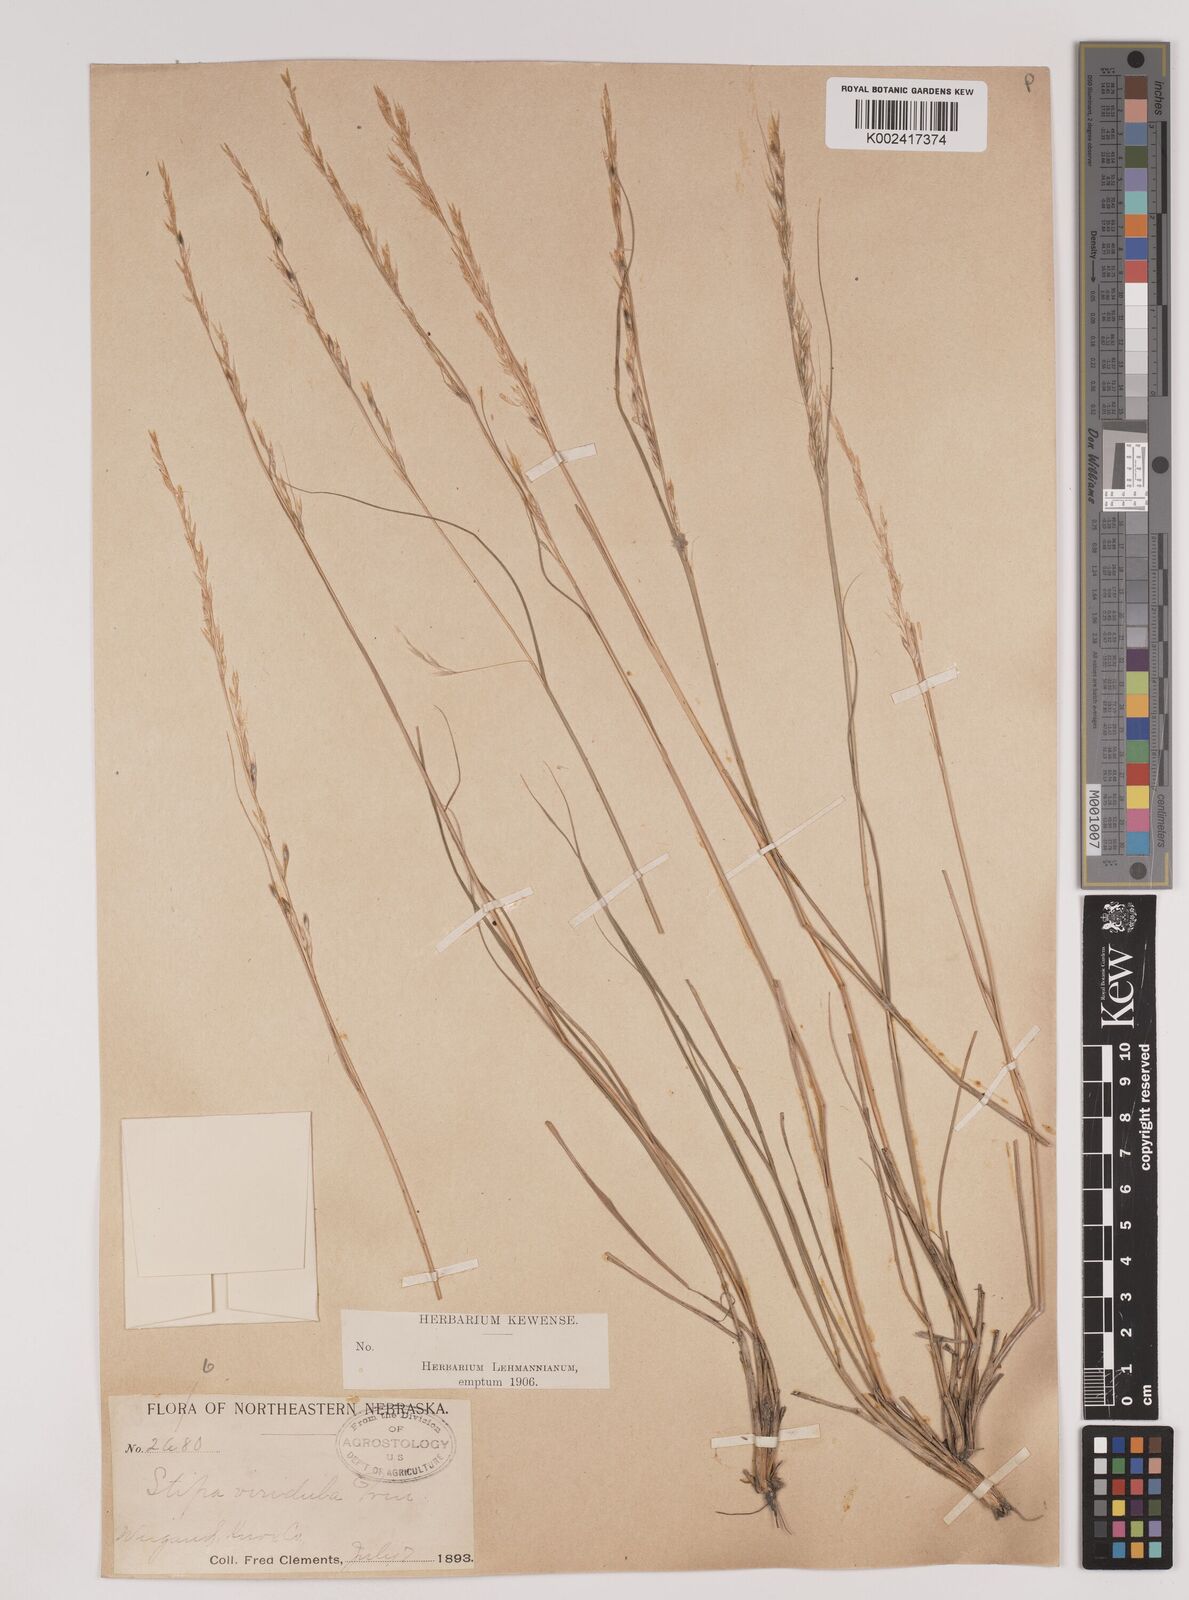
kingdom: Plantae
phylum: Tracheophyta
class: Liliopsida
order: Poales
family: Poaceae
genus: Nassella
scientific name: Nassella viridula
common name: Green needlegrass
